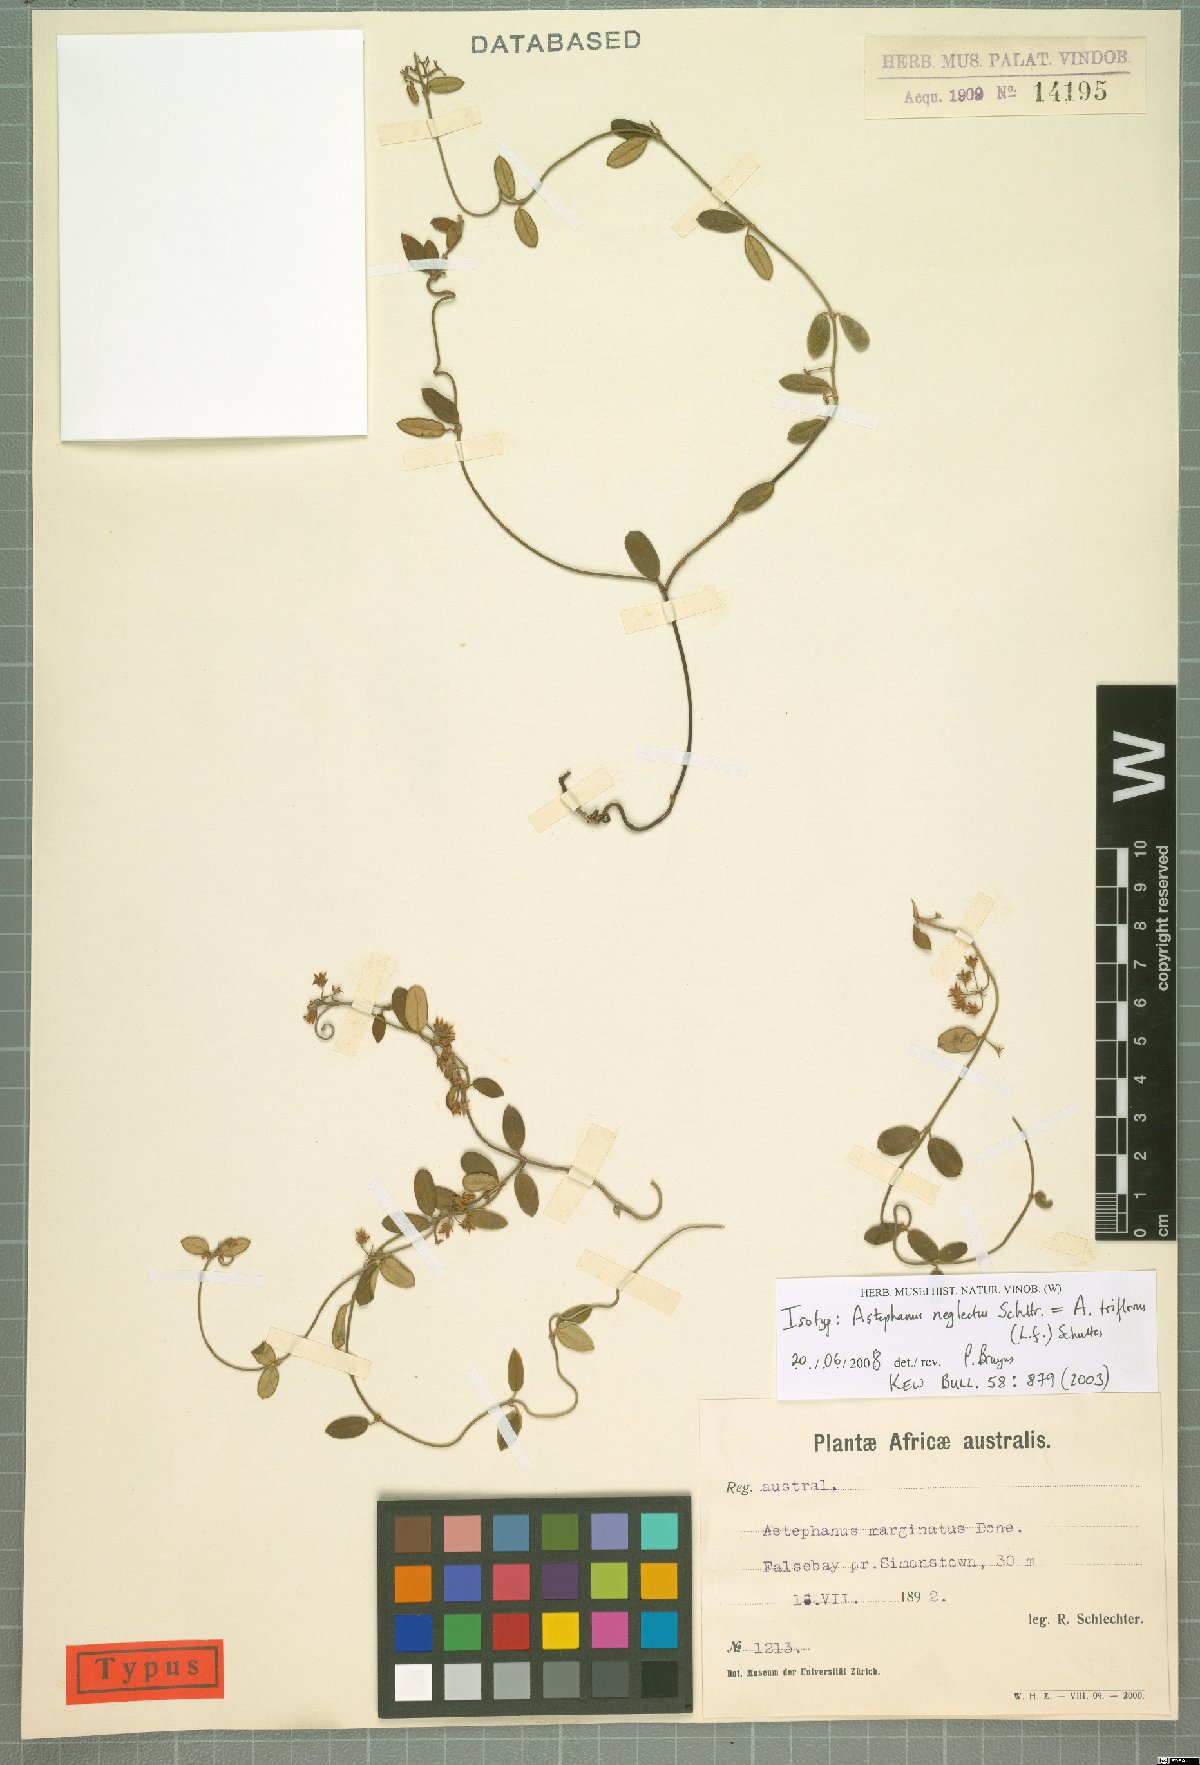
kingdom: Plantae
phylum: Tracheophyta
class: Magnoliopsida
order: Gentianales
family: Apocynaceae
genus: Astephanus
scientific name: Astephanus triflorus
